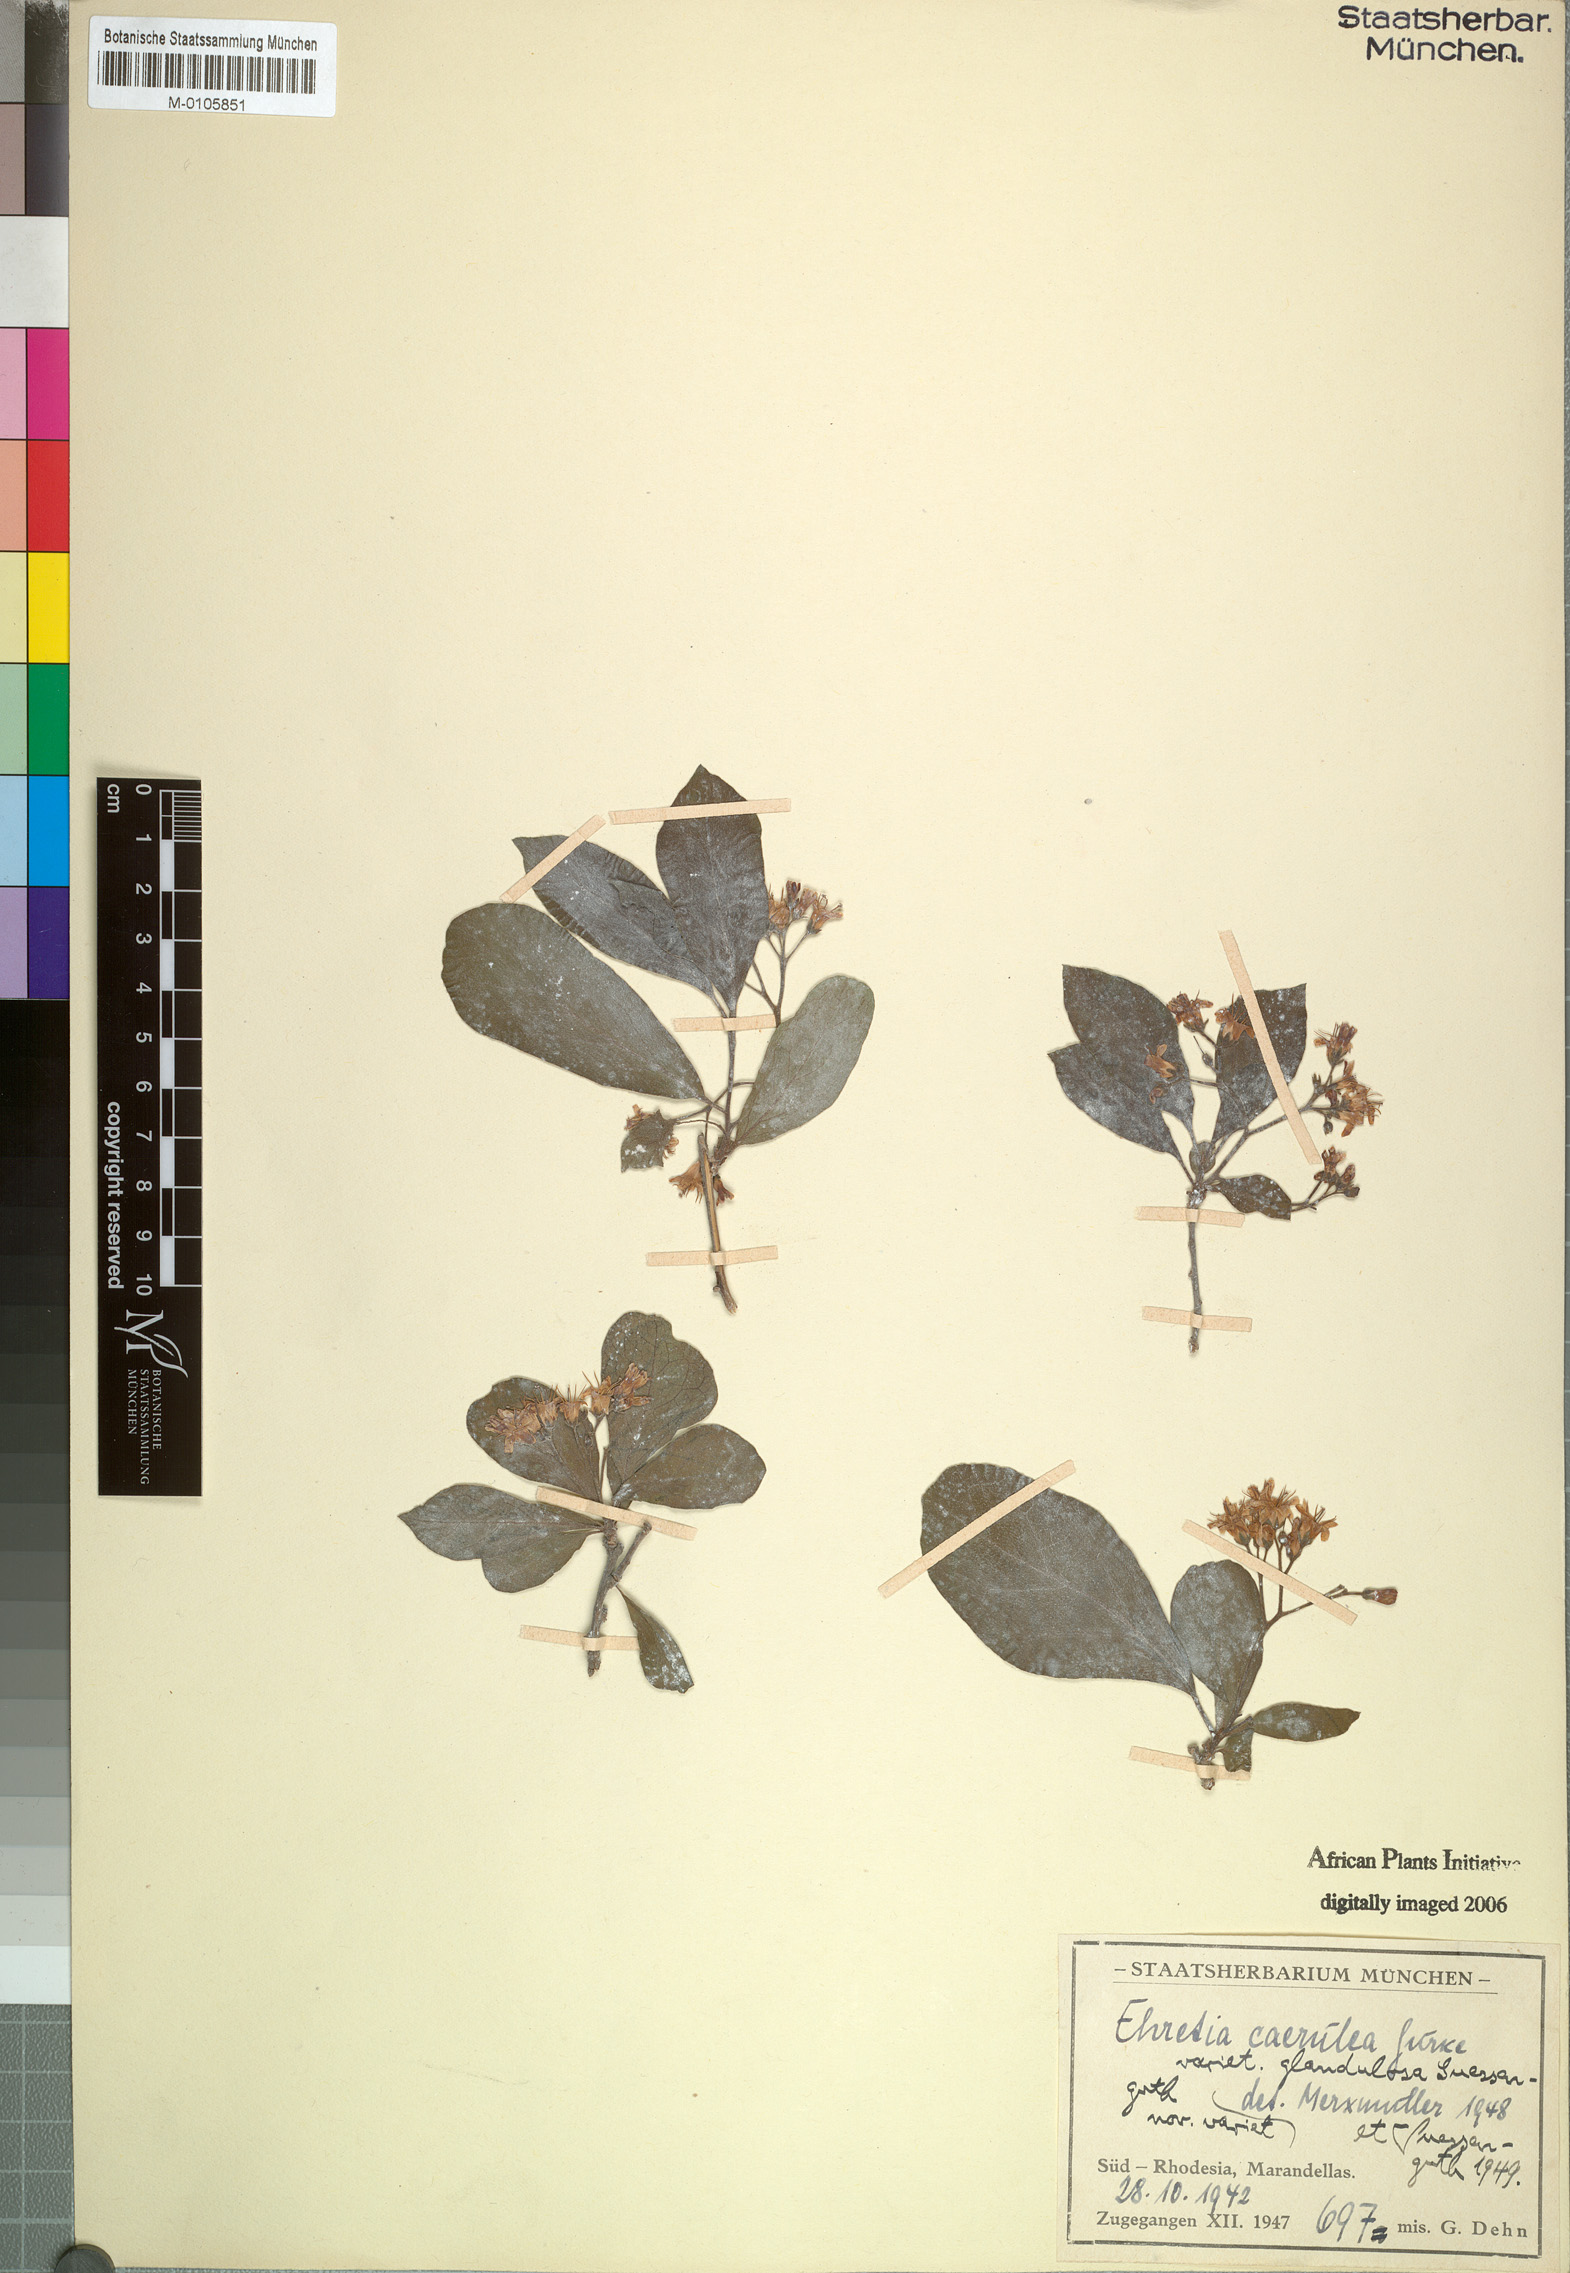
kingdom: Plantae
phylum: Tracheophyta
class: Magnoliopsida
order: Boraginales
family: Ehretiaceae
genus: Ehretia
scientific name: Ehretia obtusifolia
